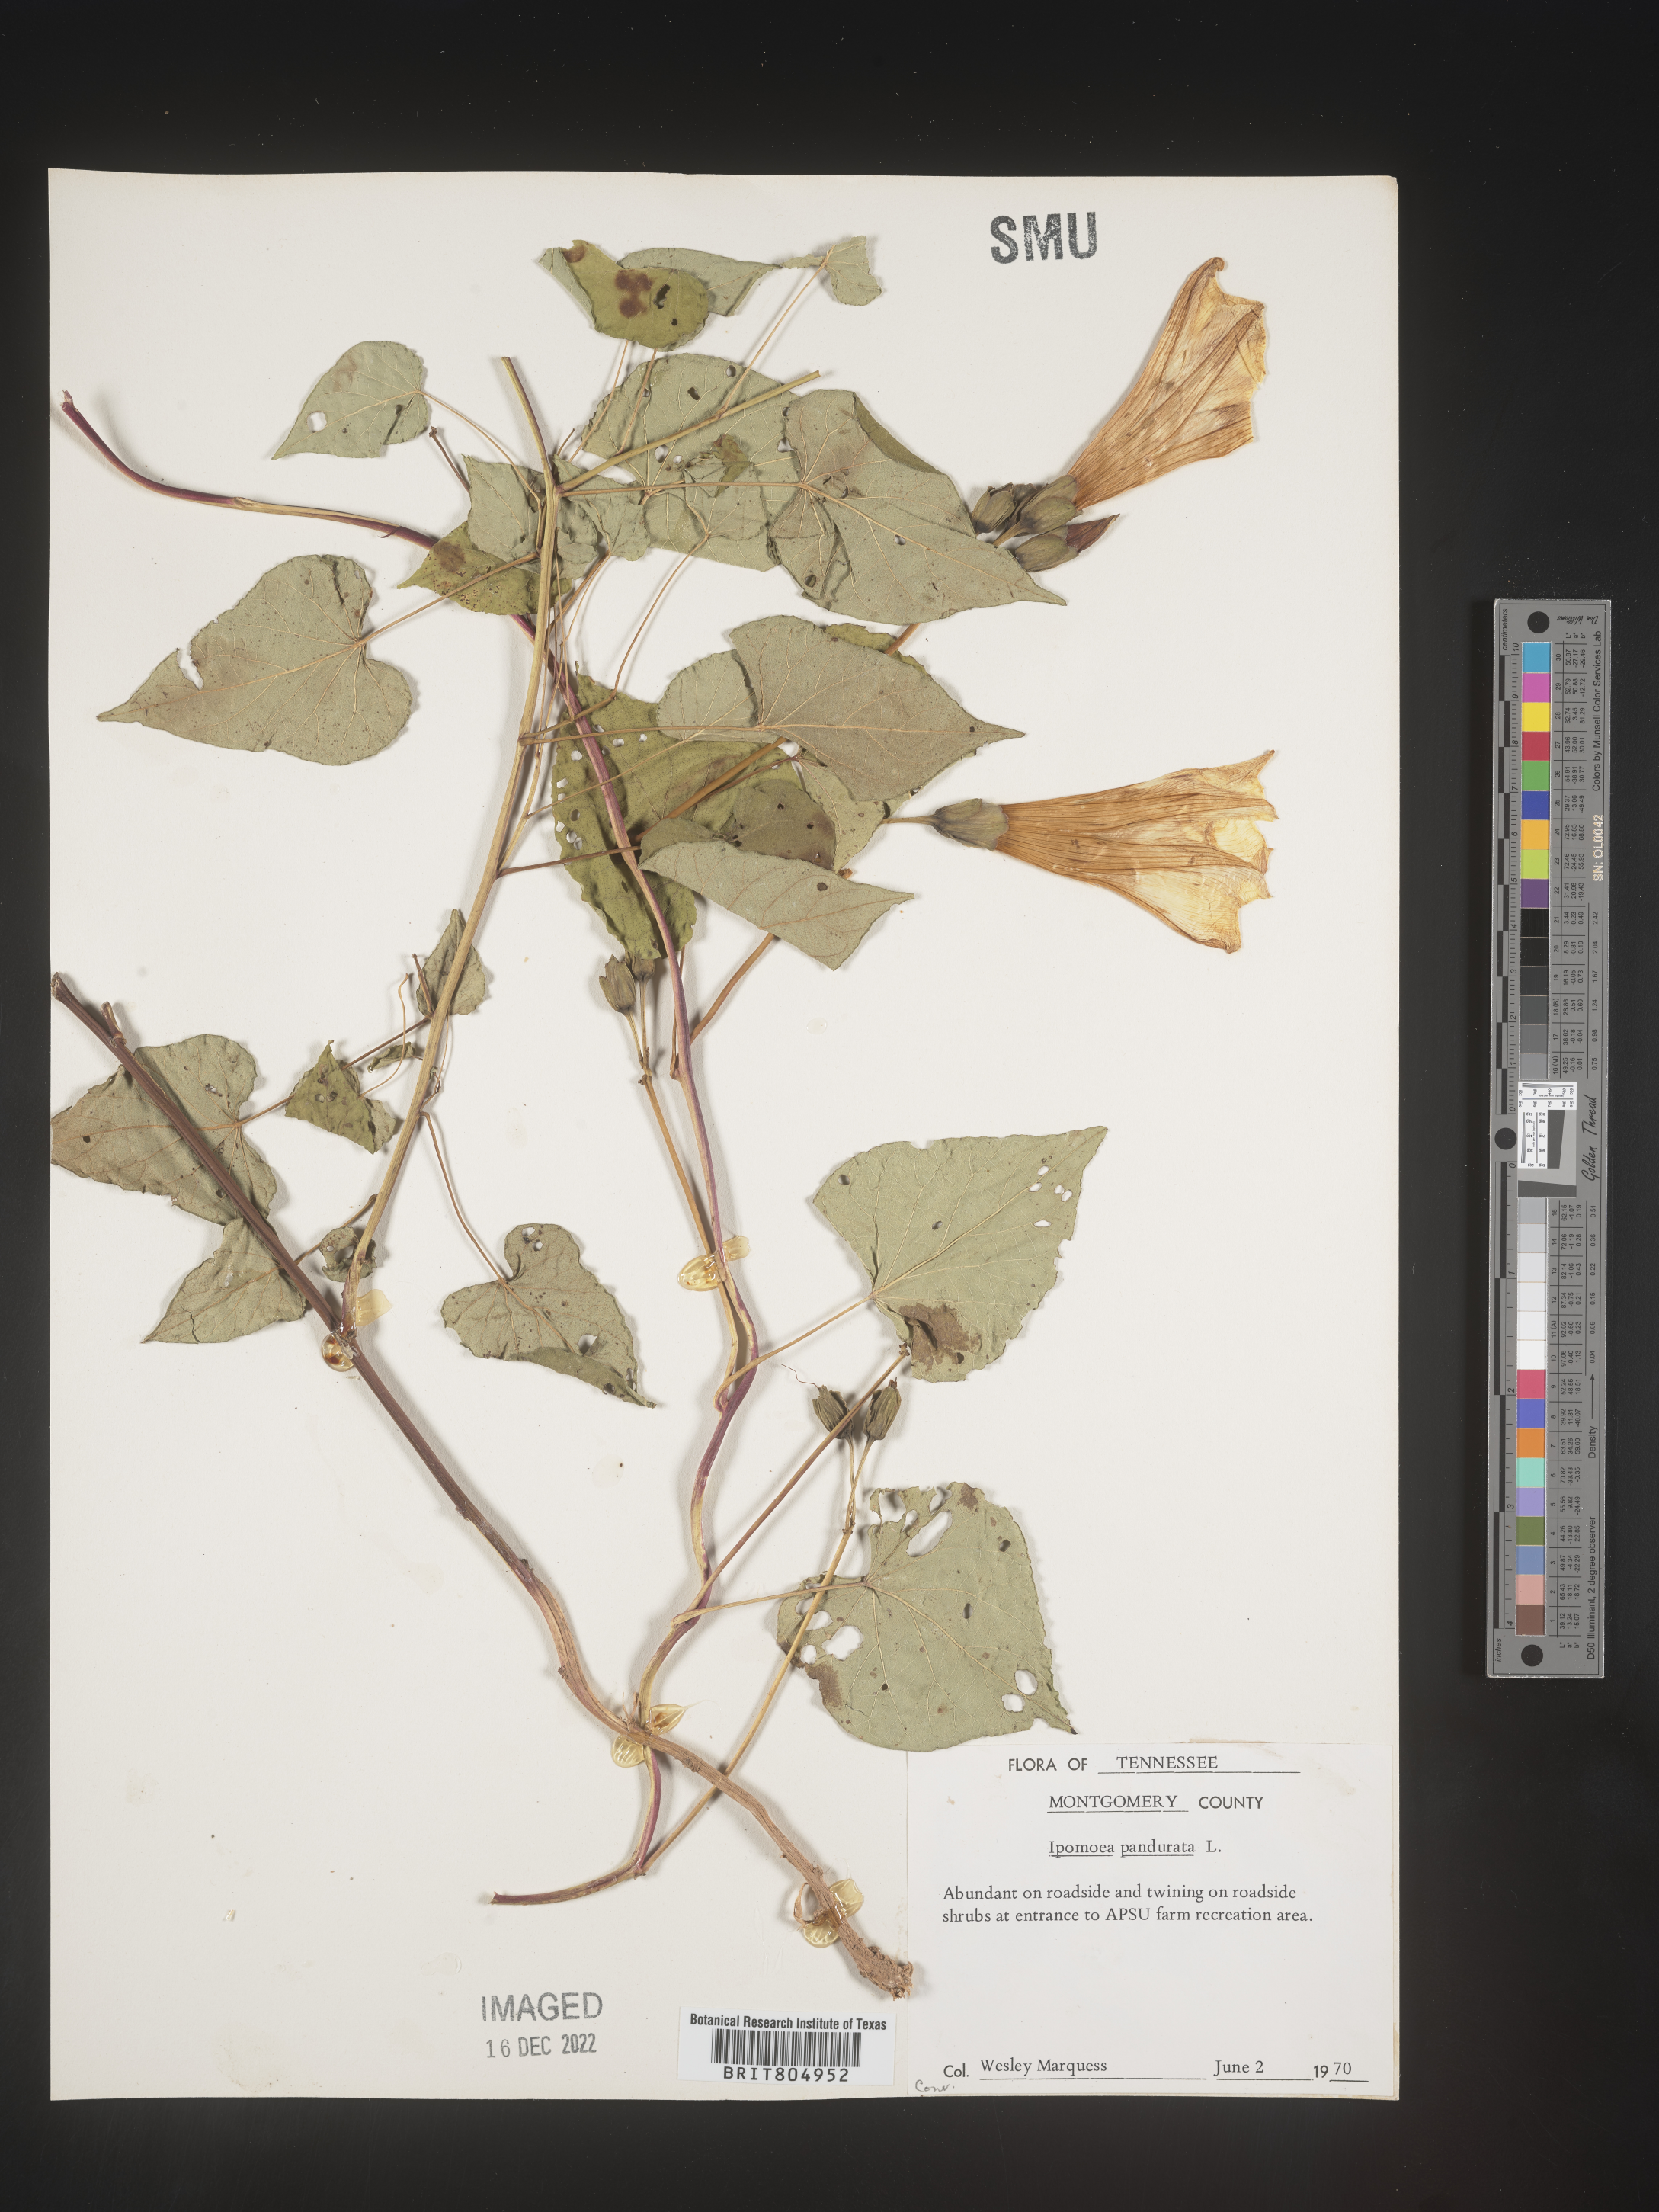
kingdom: Plantae
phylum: Tracheophyta
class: Magnoliopsida
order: Solanales
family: Convolvulaceae
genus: Ipomoea
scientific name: Ipomoea pandurata
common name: Man-of-the-earth
